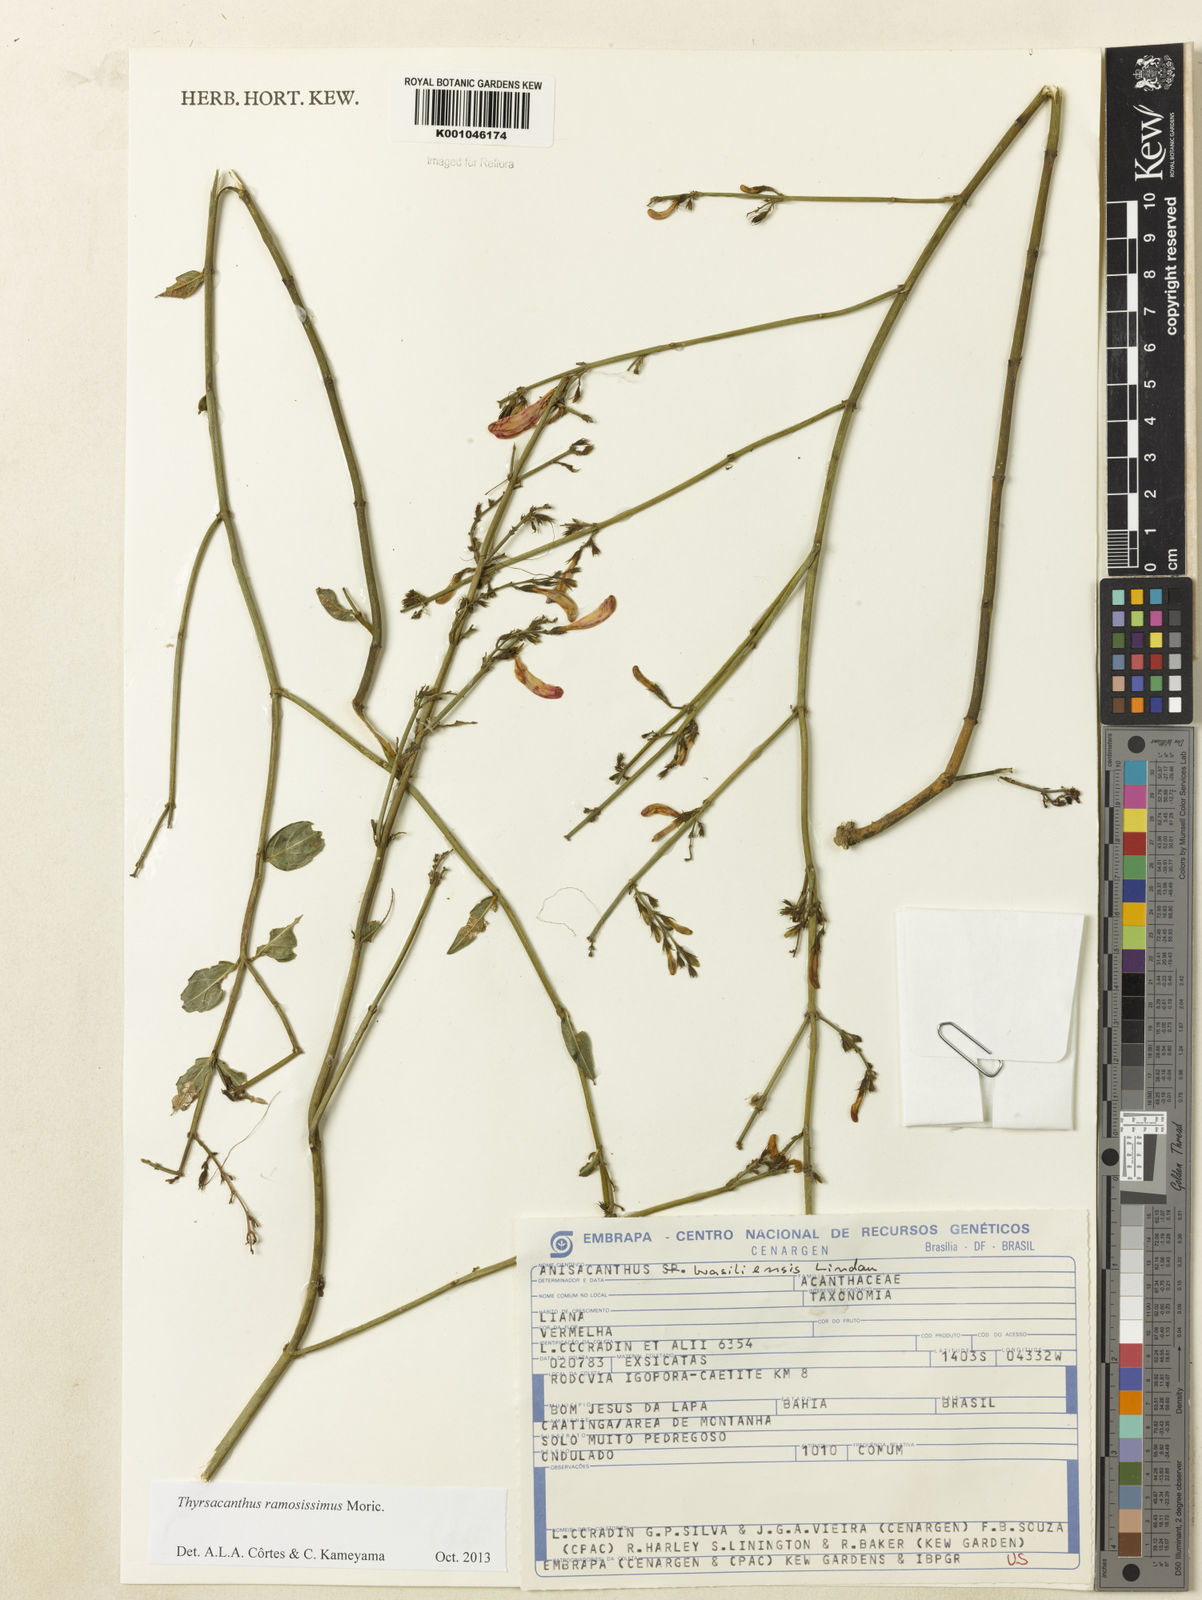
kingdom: Plantae
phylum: Tracheophyta
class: Magnoliopsida
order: Lamiales
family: Acanthaceae
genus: Thyrsacanthus
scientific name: Thyrsacanthus ramosissimus
